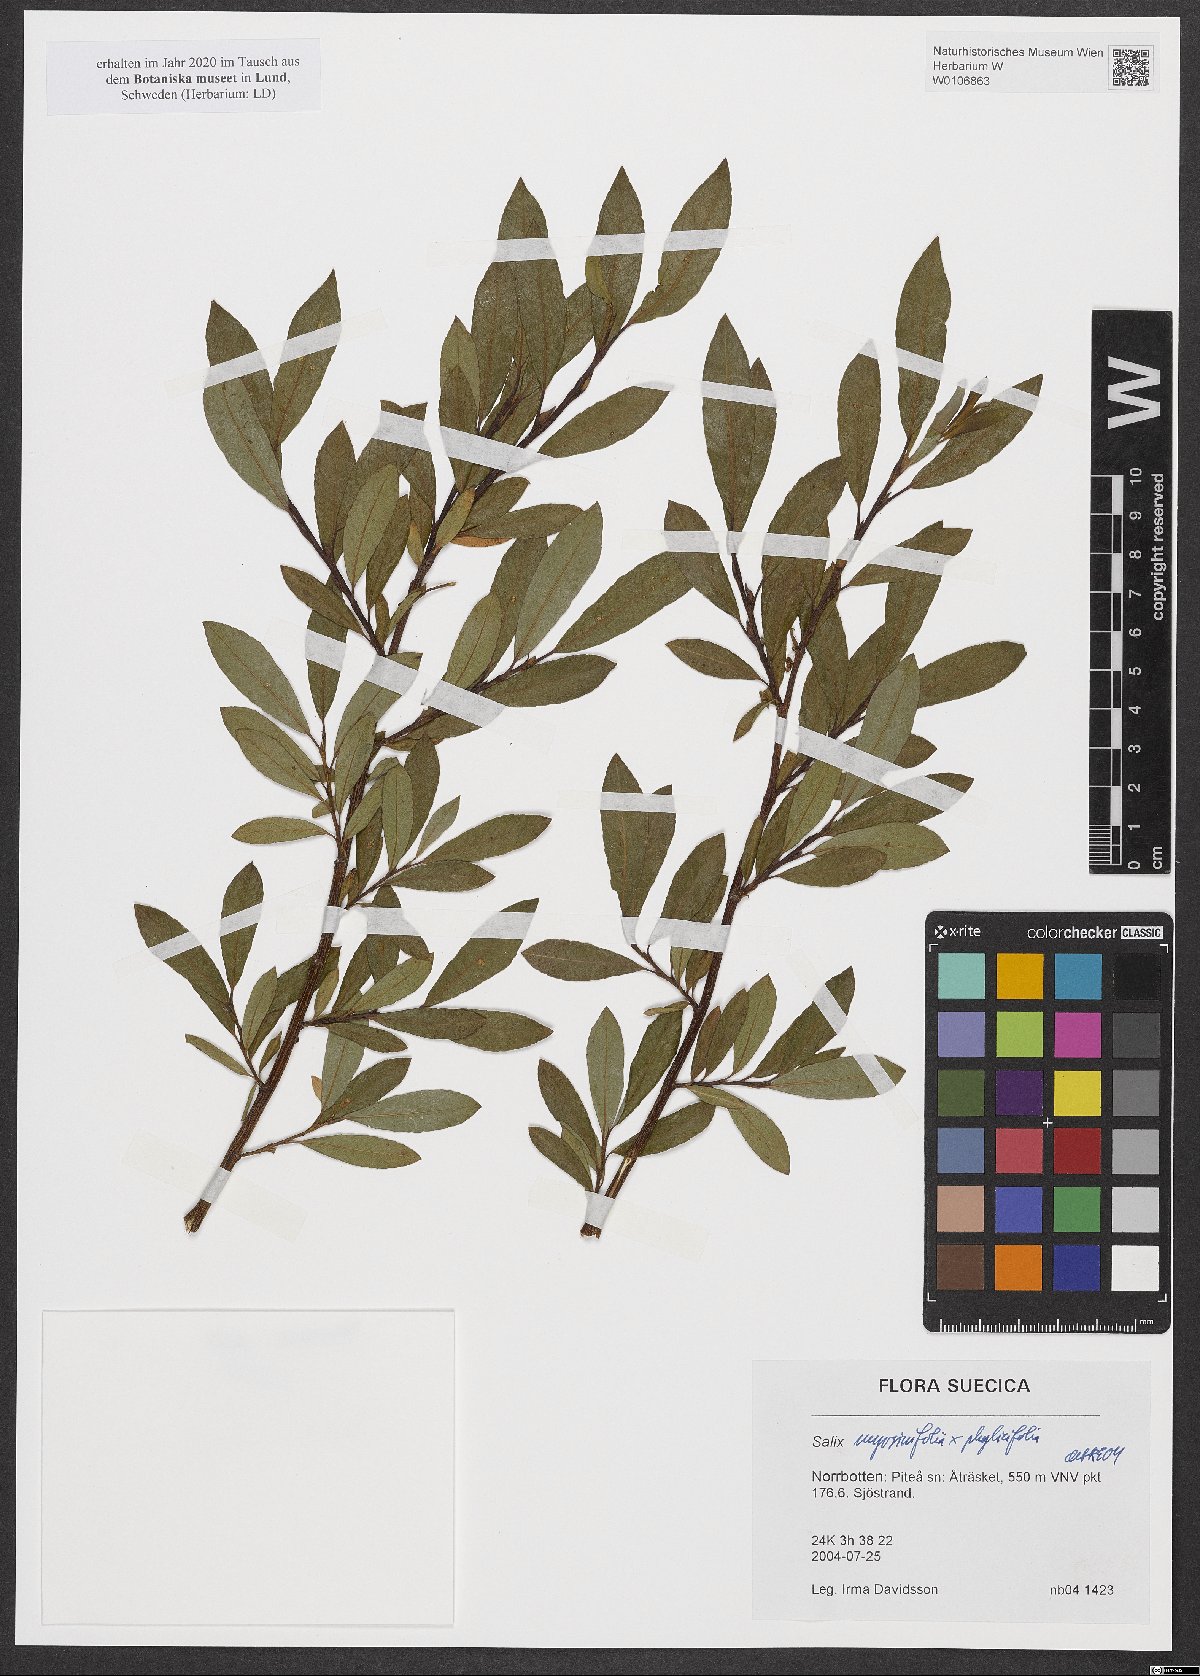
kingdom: Plantae
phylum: Tracheophyta
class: Magnoliopsida
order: Malpighiales
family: Salicaceae
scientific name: Salicaceae
